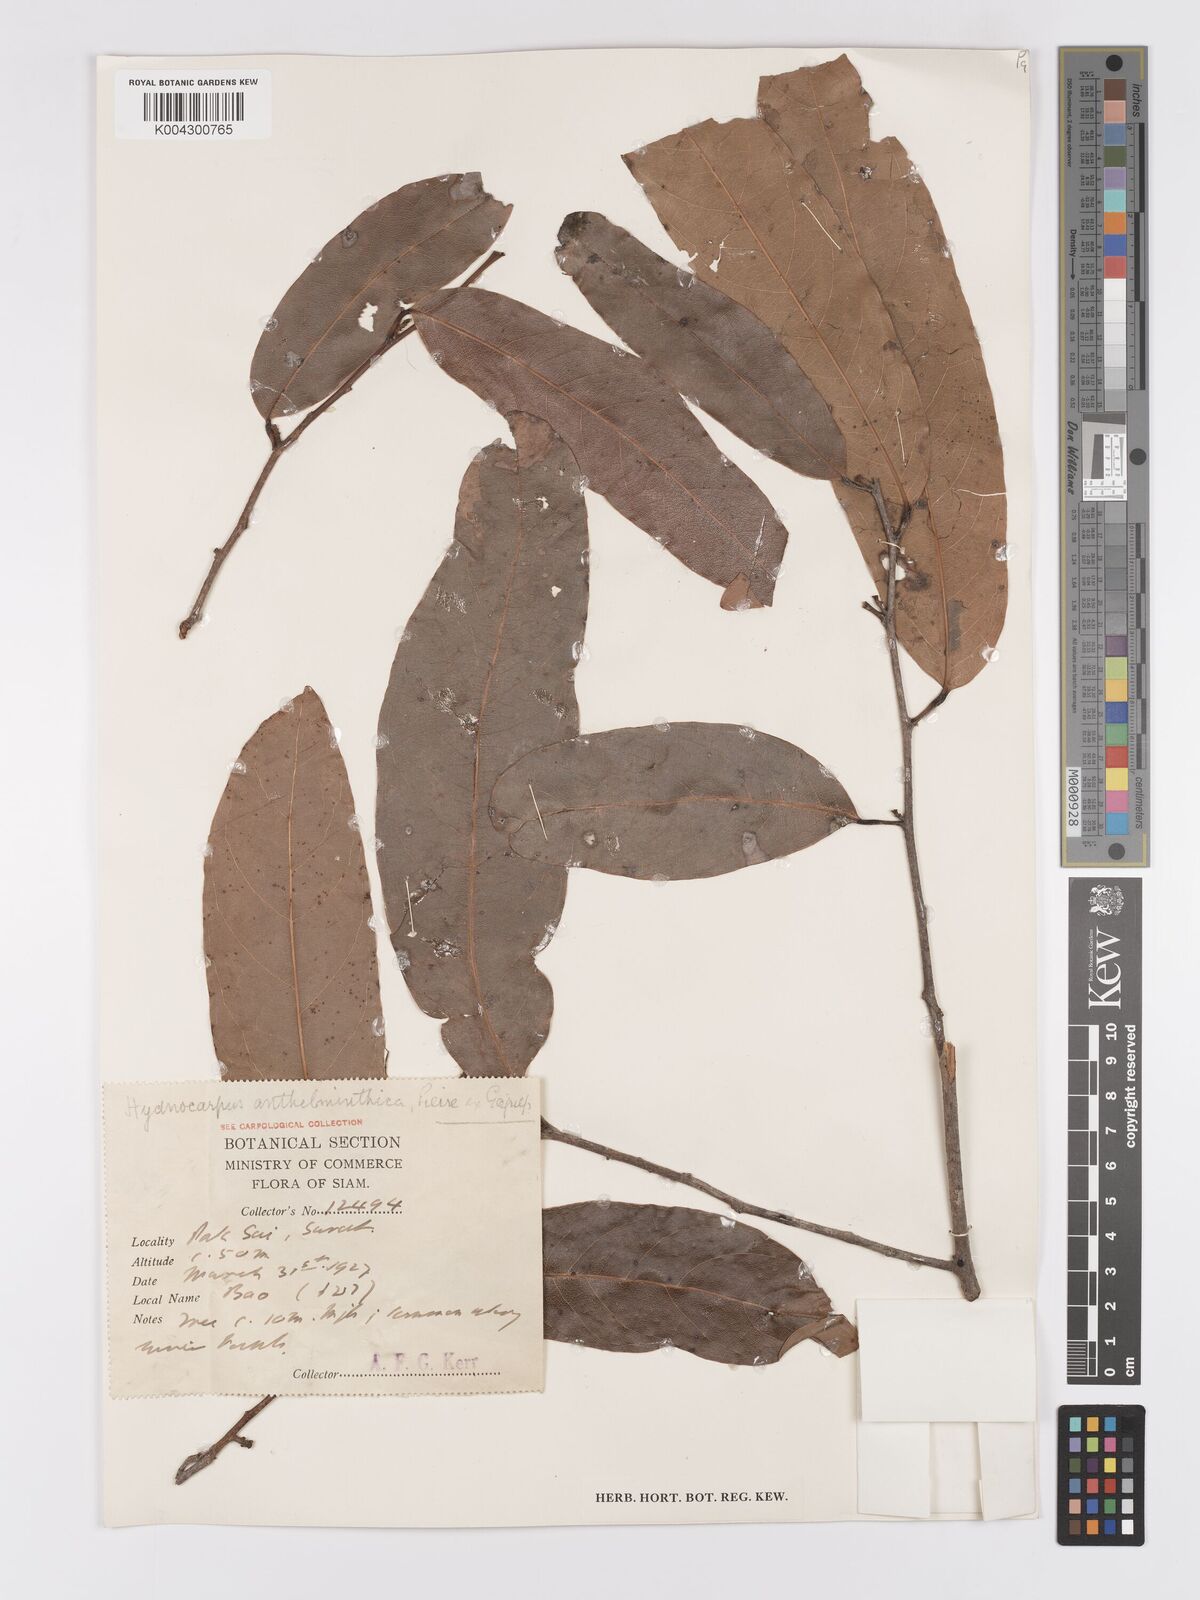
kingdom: Plantae
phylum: Tracheophyta
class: Magnoliopsida
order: Malpighiales
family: Achariaceae
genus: Hydnocarpus
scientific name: Hydnocarpus castaneus
